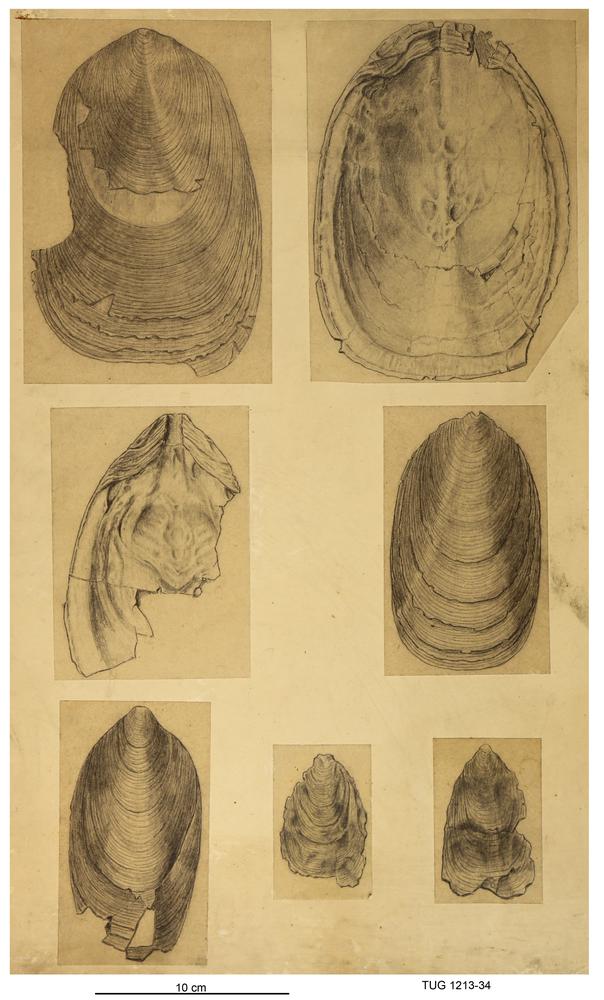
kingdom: Animalia
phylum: Brachiopoda
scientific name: Brachiopoda
